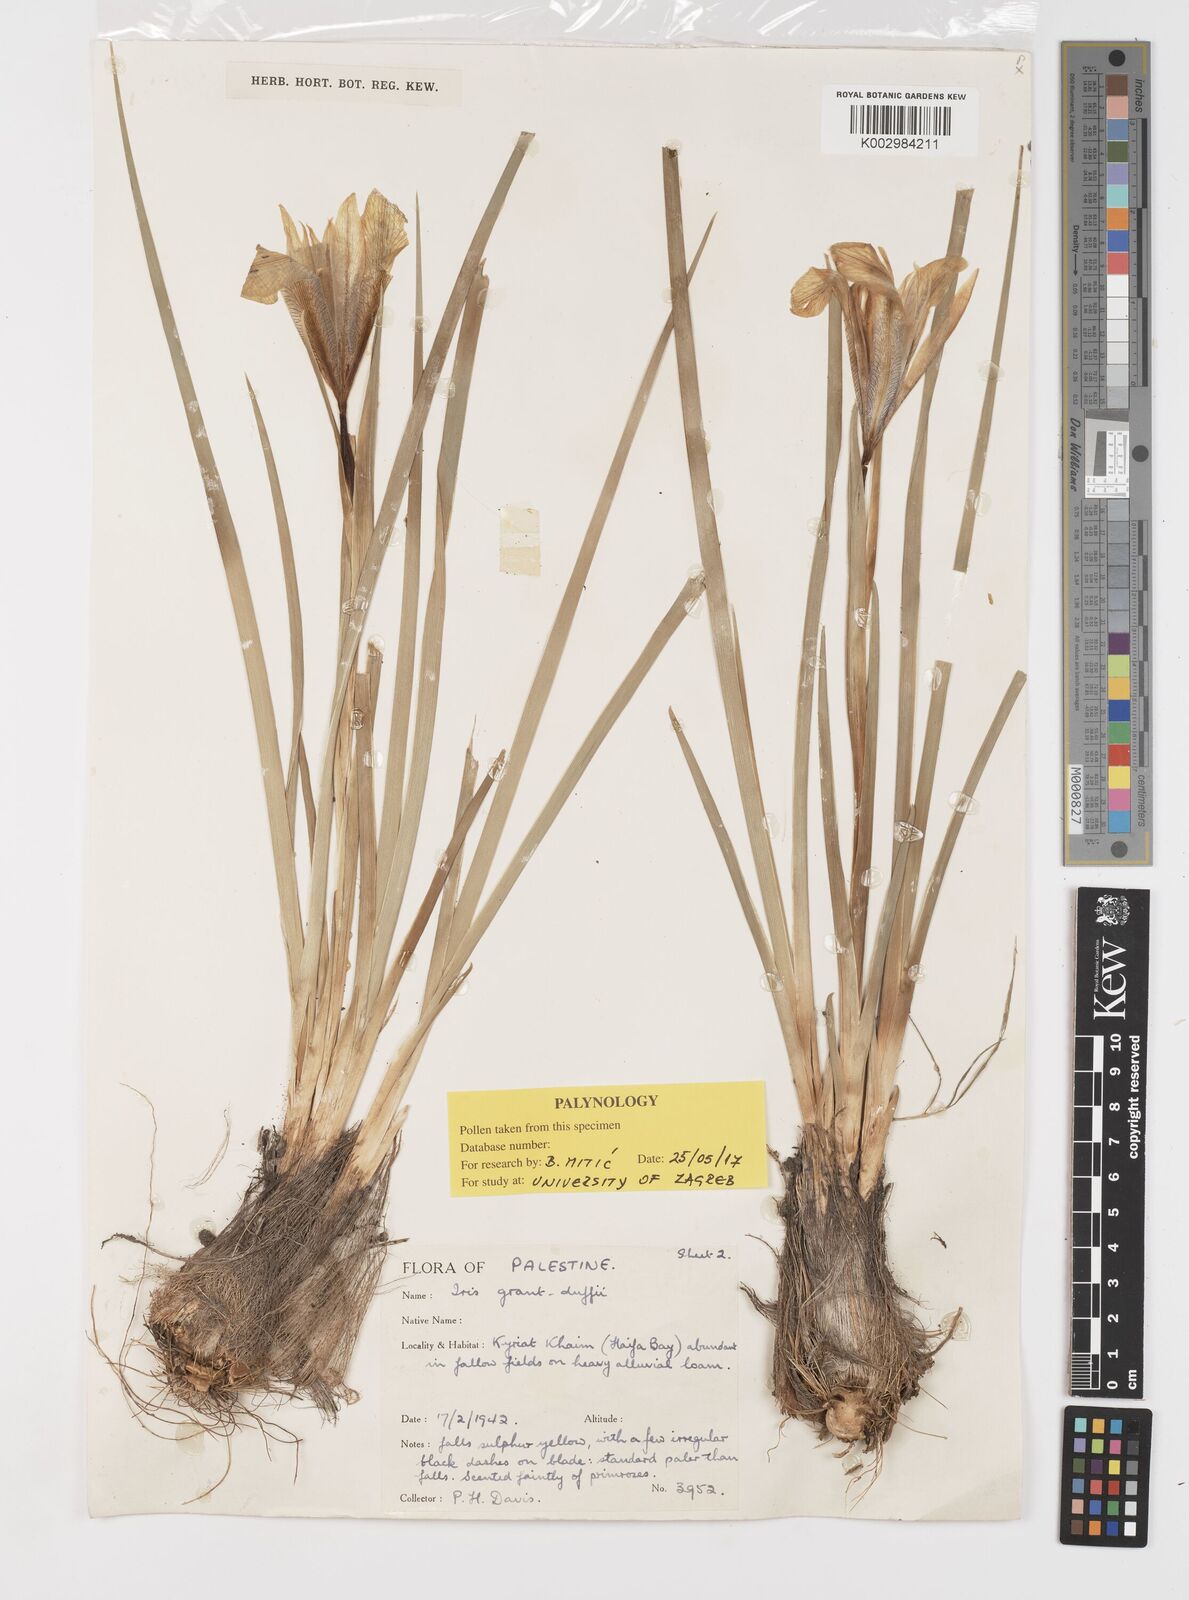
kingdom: Plantae
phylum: Tracheophyta
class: Liliopsida
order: Asparagales
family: Iridaceae
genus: Iris
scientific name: Iris grant-duffii
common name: Grant duff's iris
